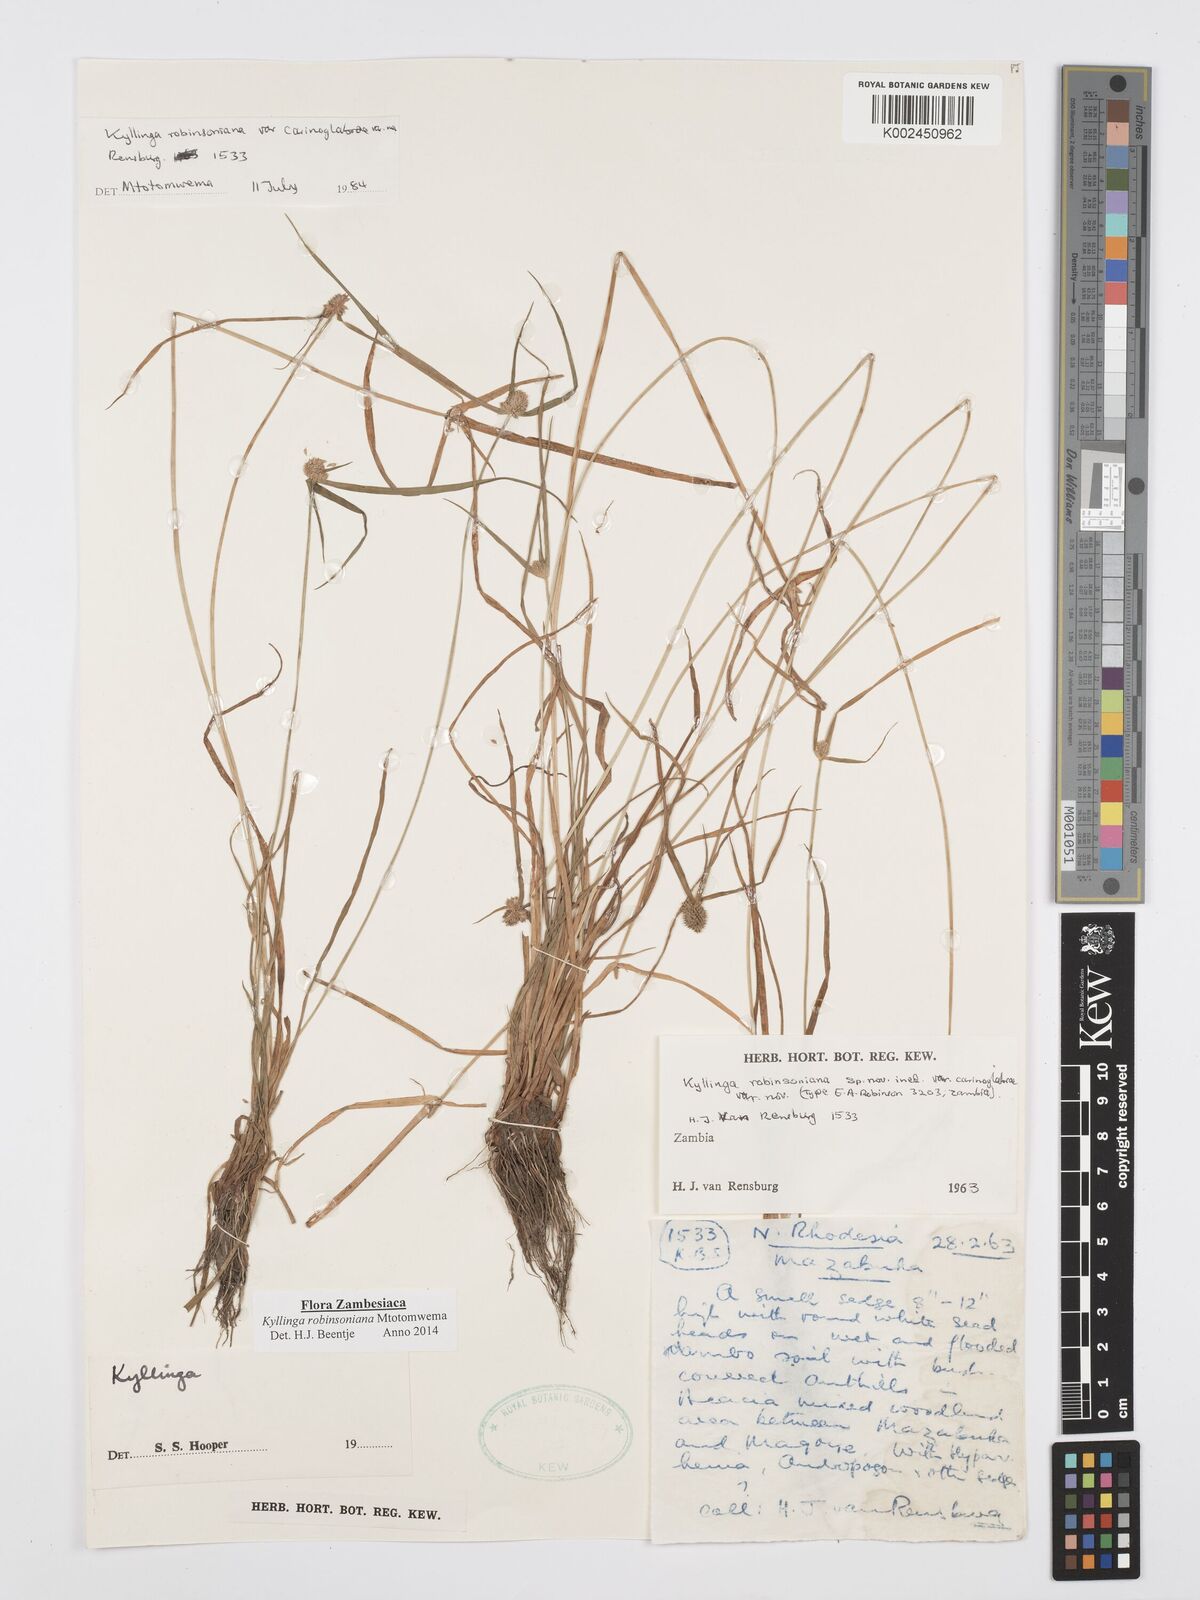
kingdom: Plantae
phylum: Tracheophyta
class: Liliopsida
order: Poales
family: Cyperaceae
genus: Cyperus
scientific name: Cyperus robinsonianus
